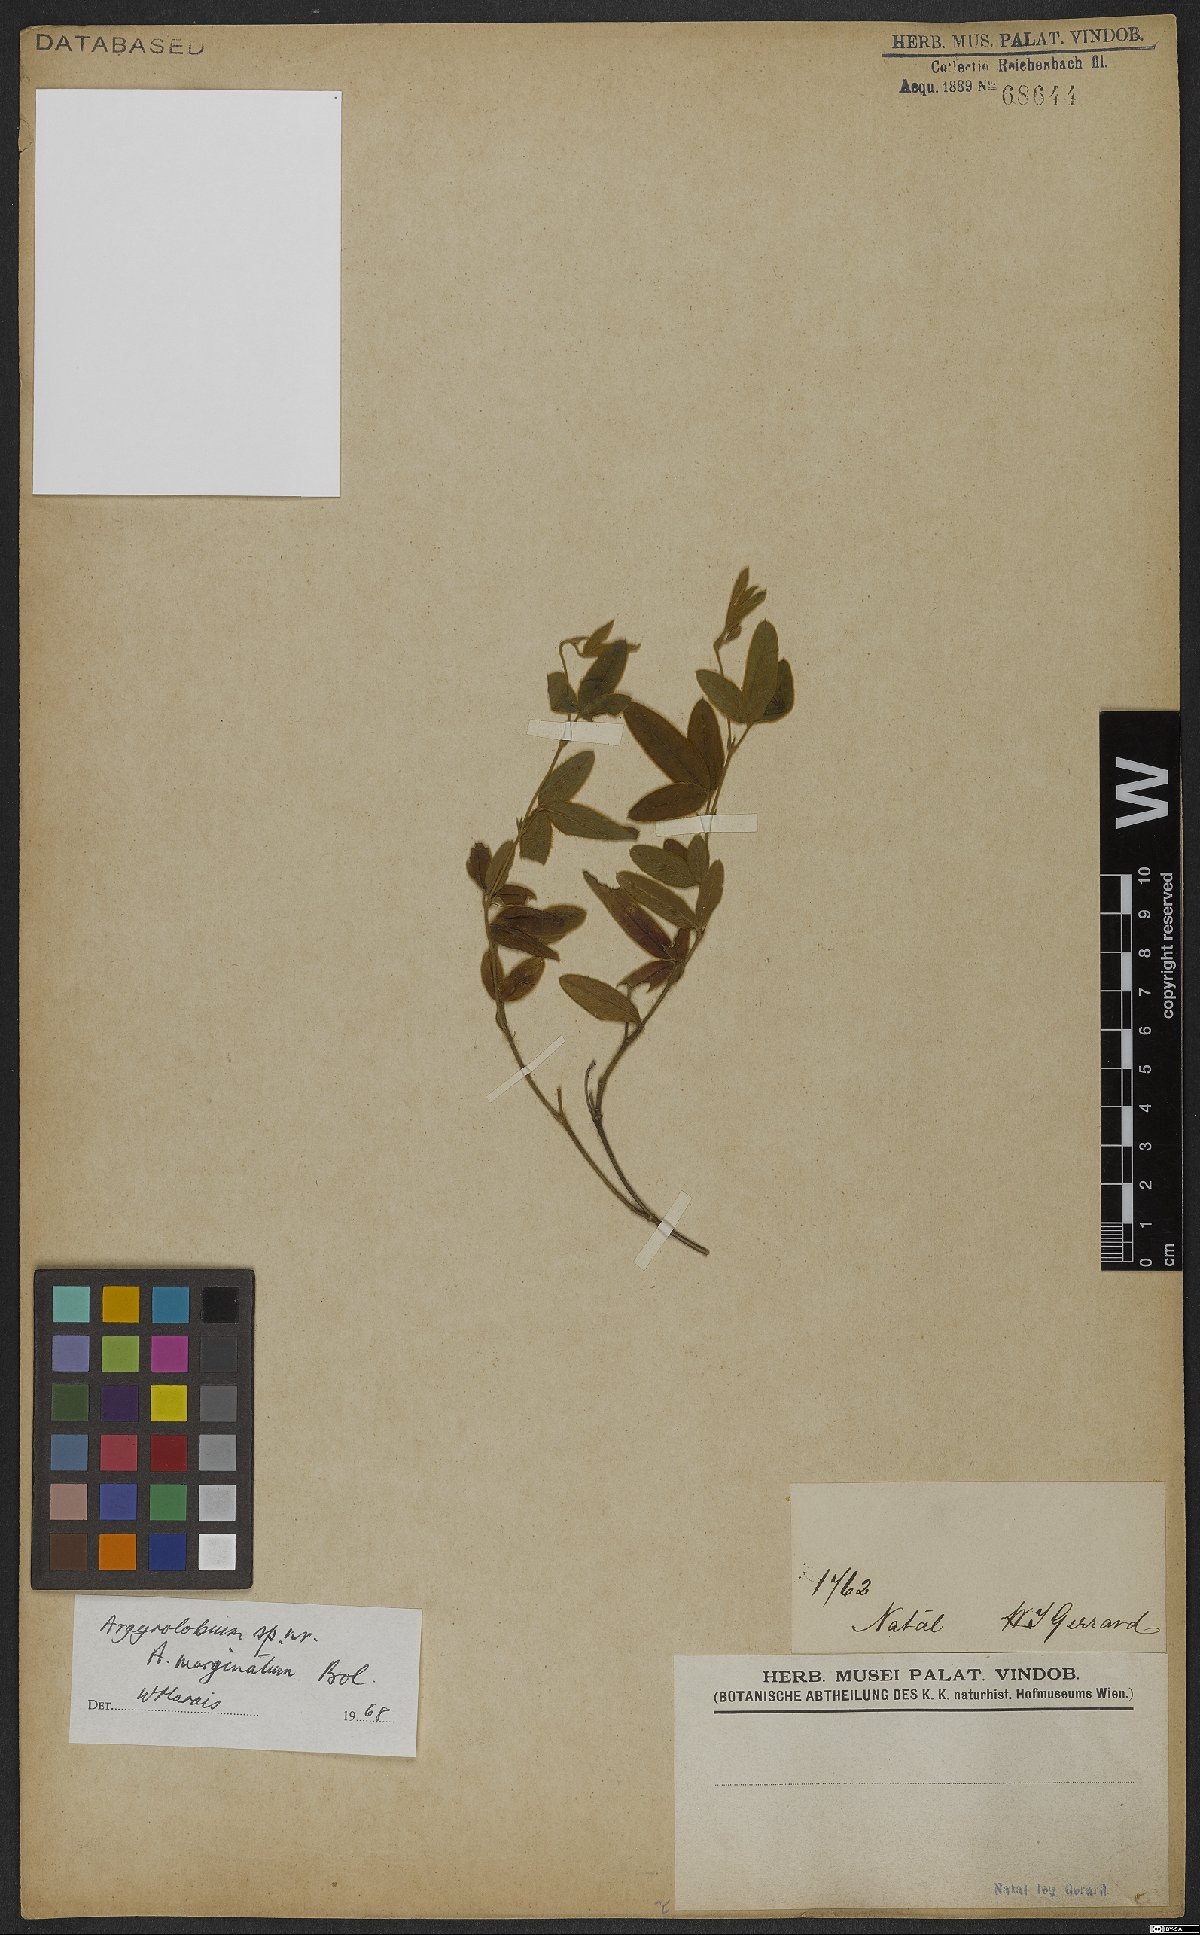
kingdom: Plantae
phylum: Tracheophyta
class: Magnoliopsida
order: Fabales
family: Fabaceae
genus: Argyrolobium
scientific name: Argyrolobium marginatum
